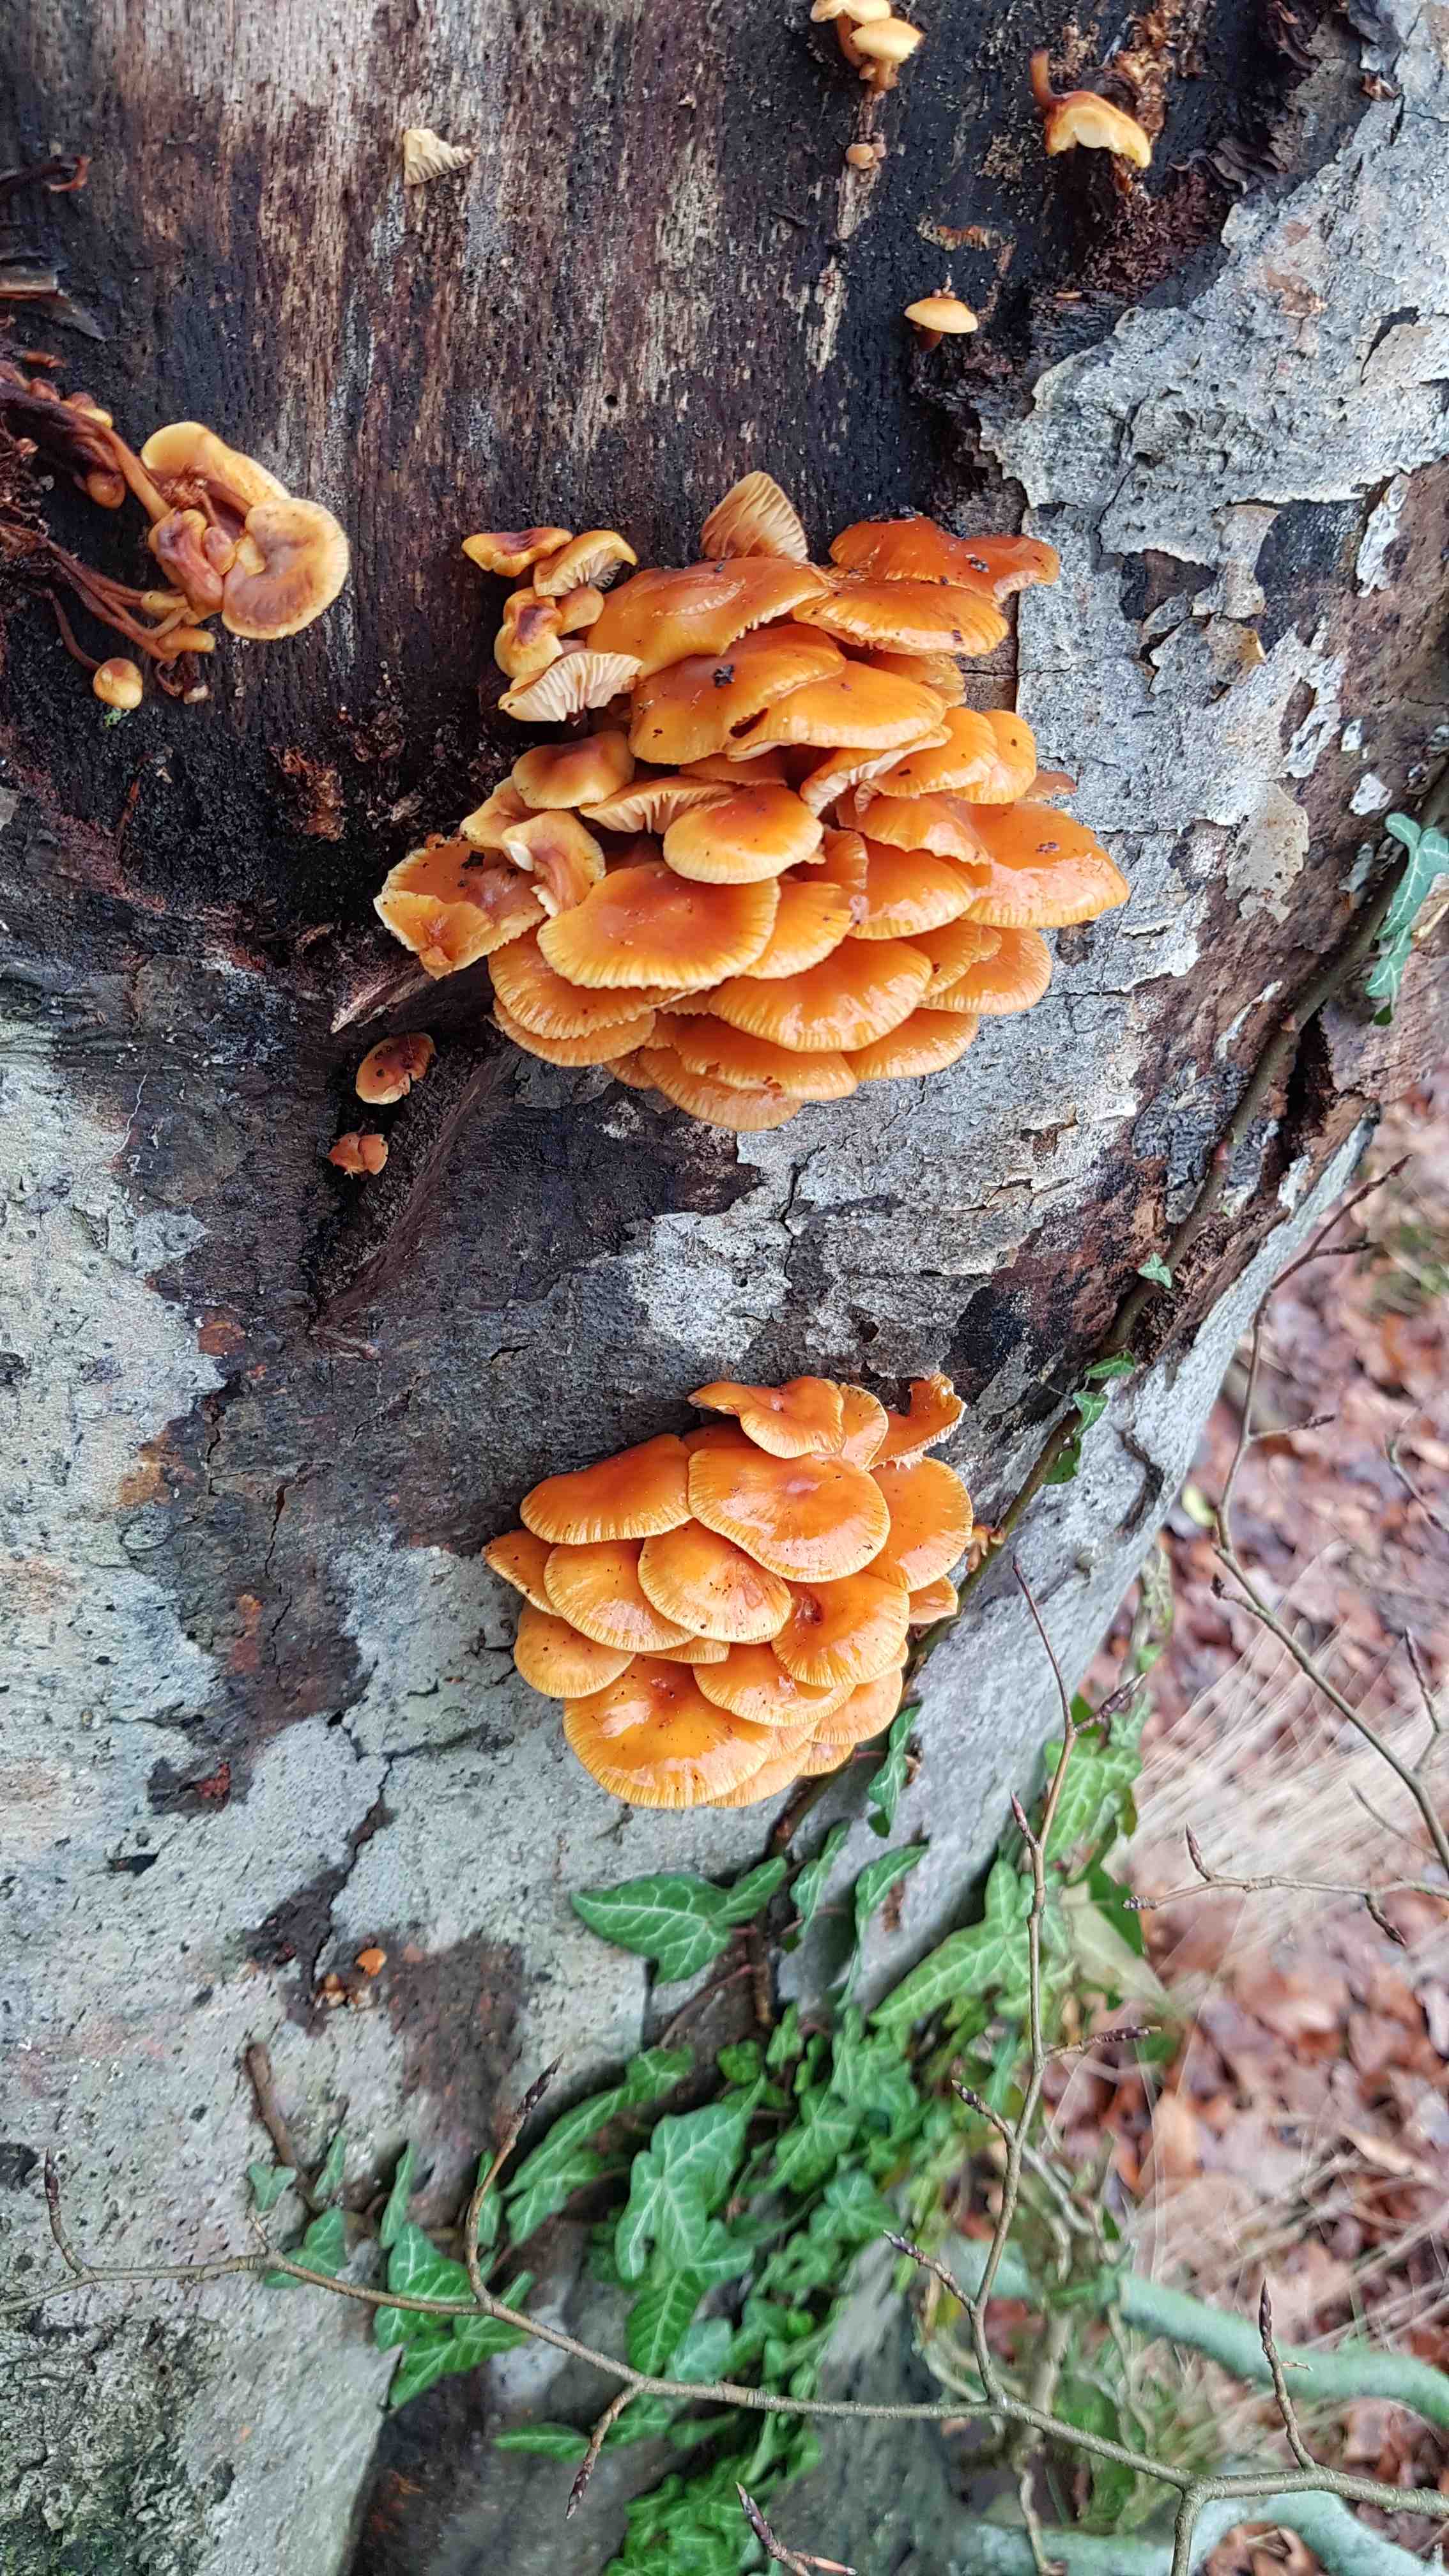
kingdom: Fungi
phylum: Basidiomycota
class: Agaricomycetes
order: Agaricales
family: Physalacriaceae
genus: Flammulina
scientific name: Flammulina velutipes
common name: gul fløjlsfod
